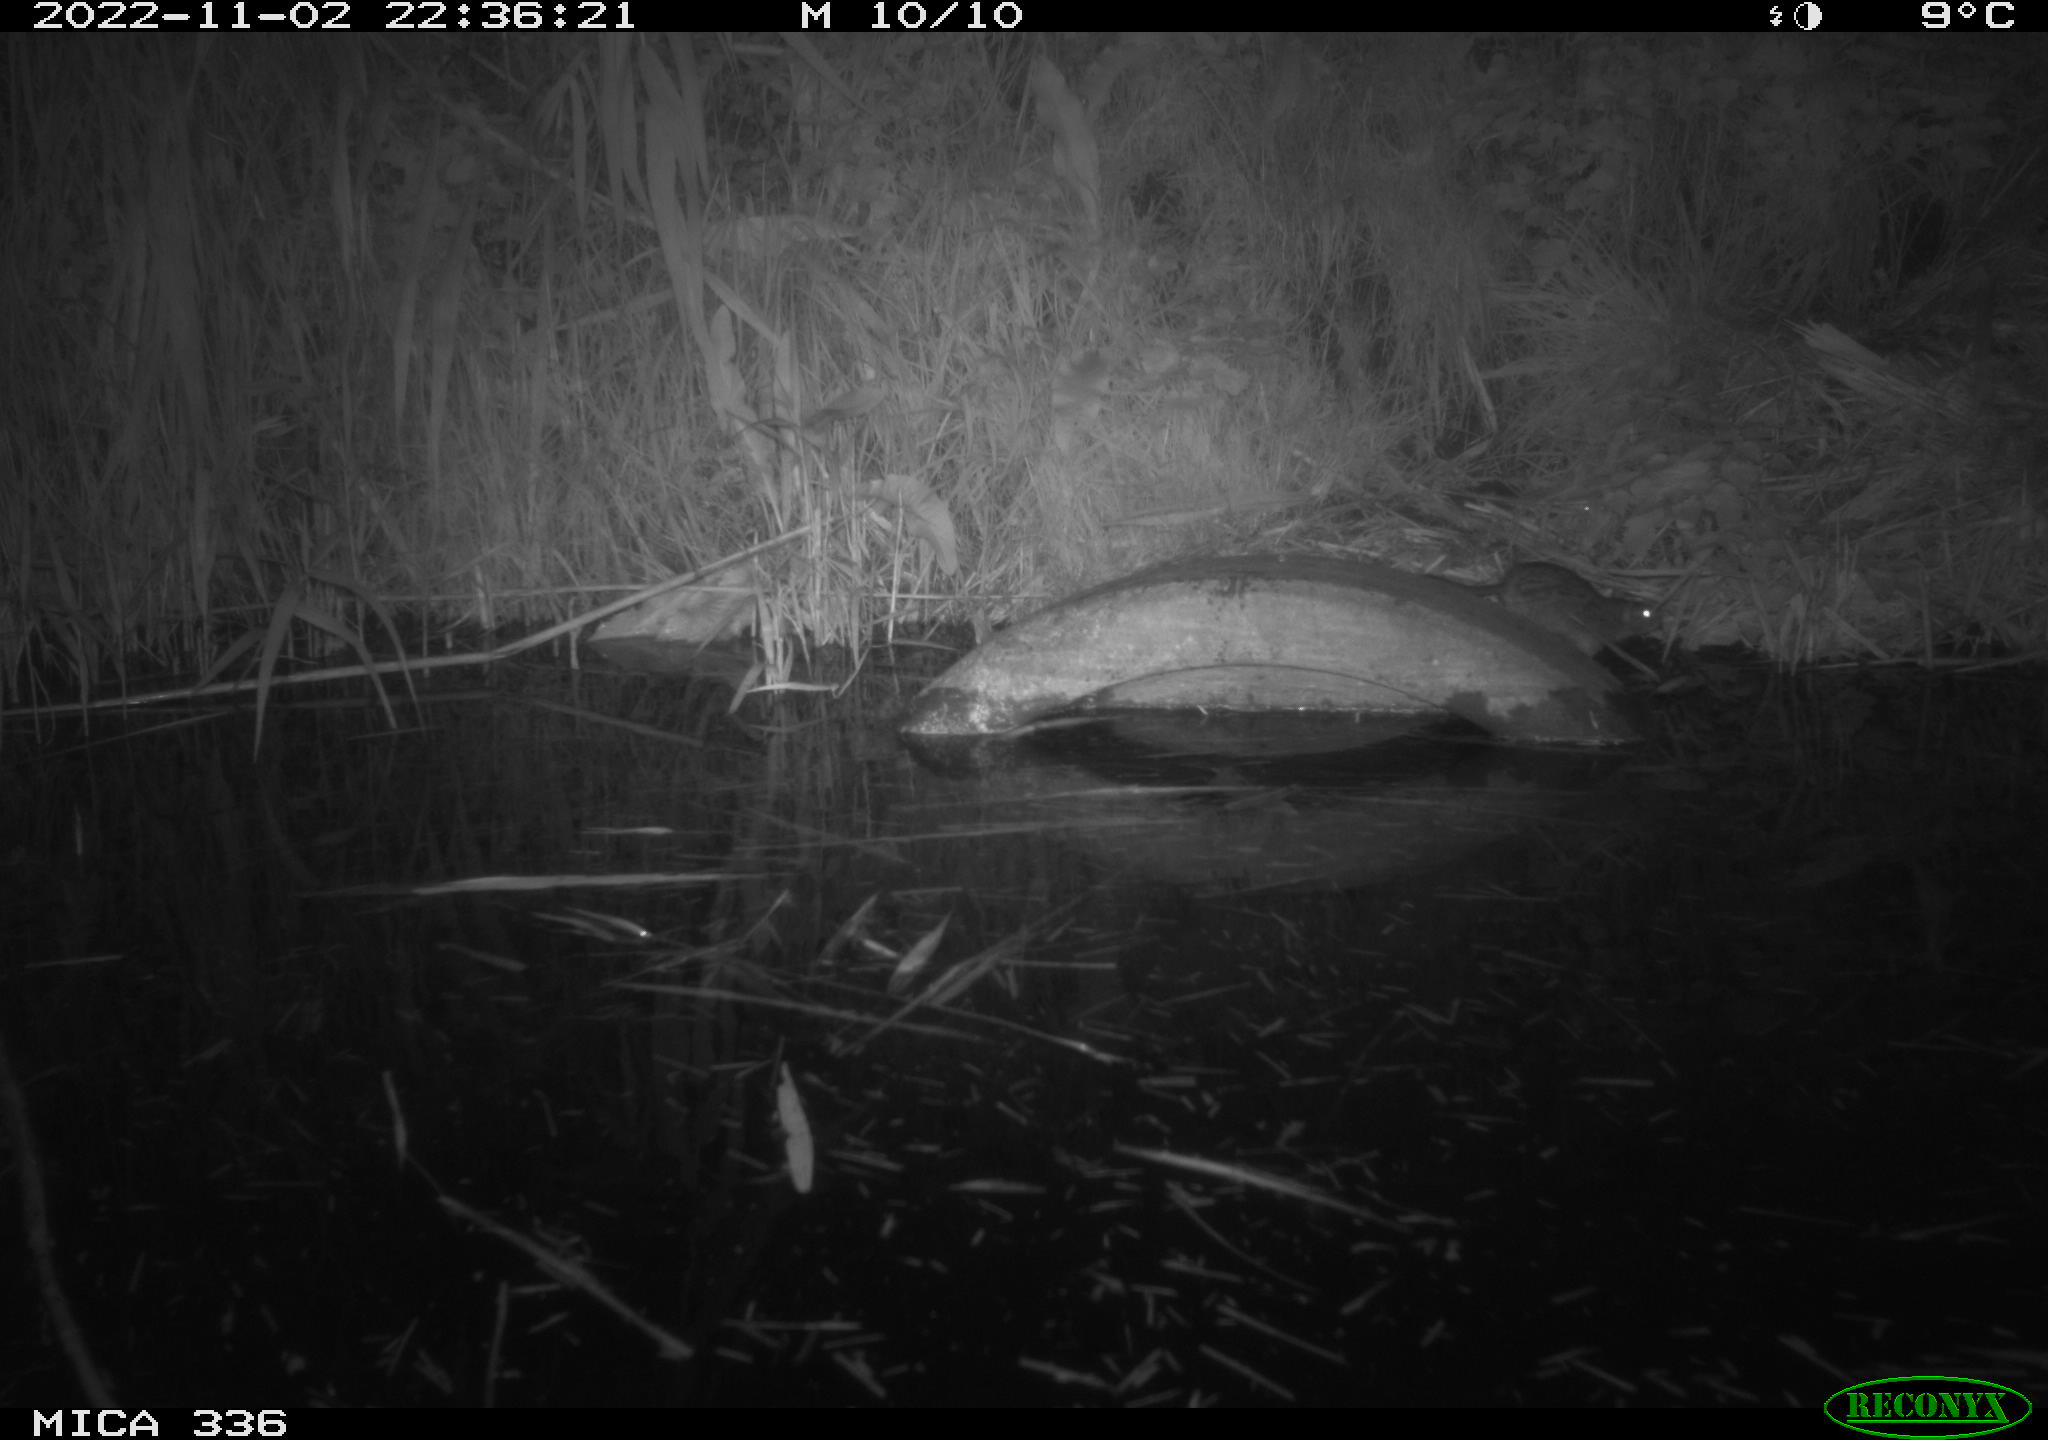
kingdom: Animalia
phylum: Chordata
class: Mammalia
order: Rodentia
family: Muridae
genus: Rattus
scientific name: Rattus norvegicus
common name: Brown rat
